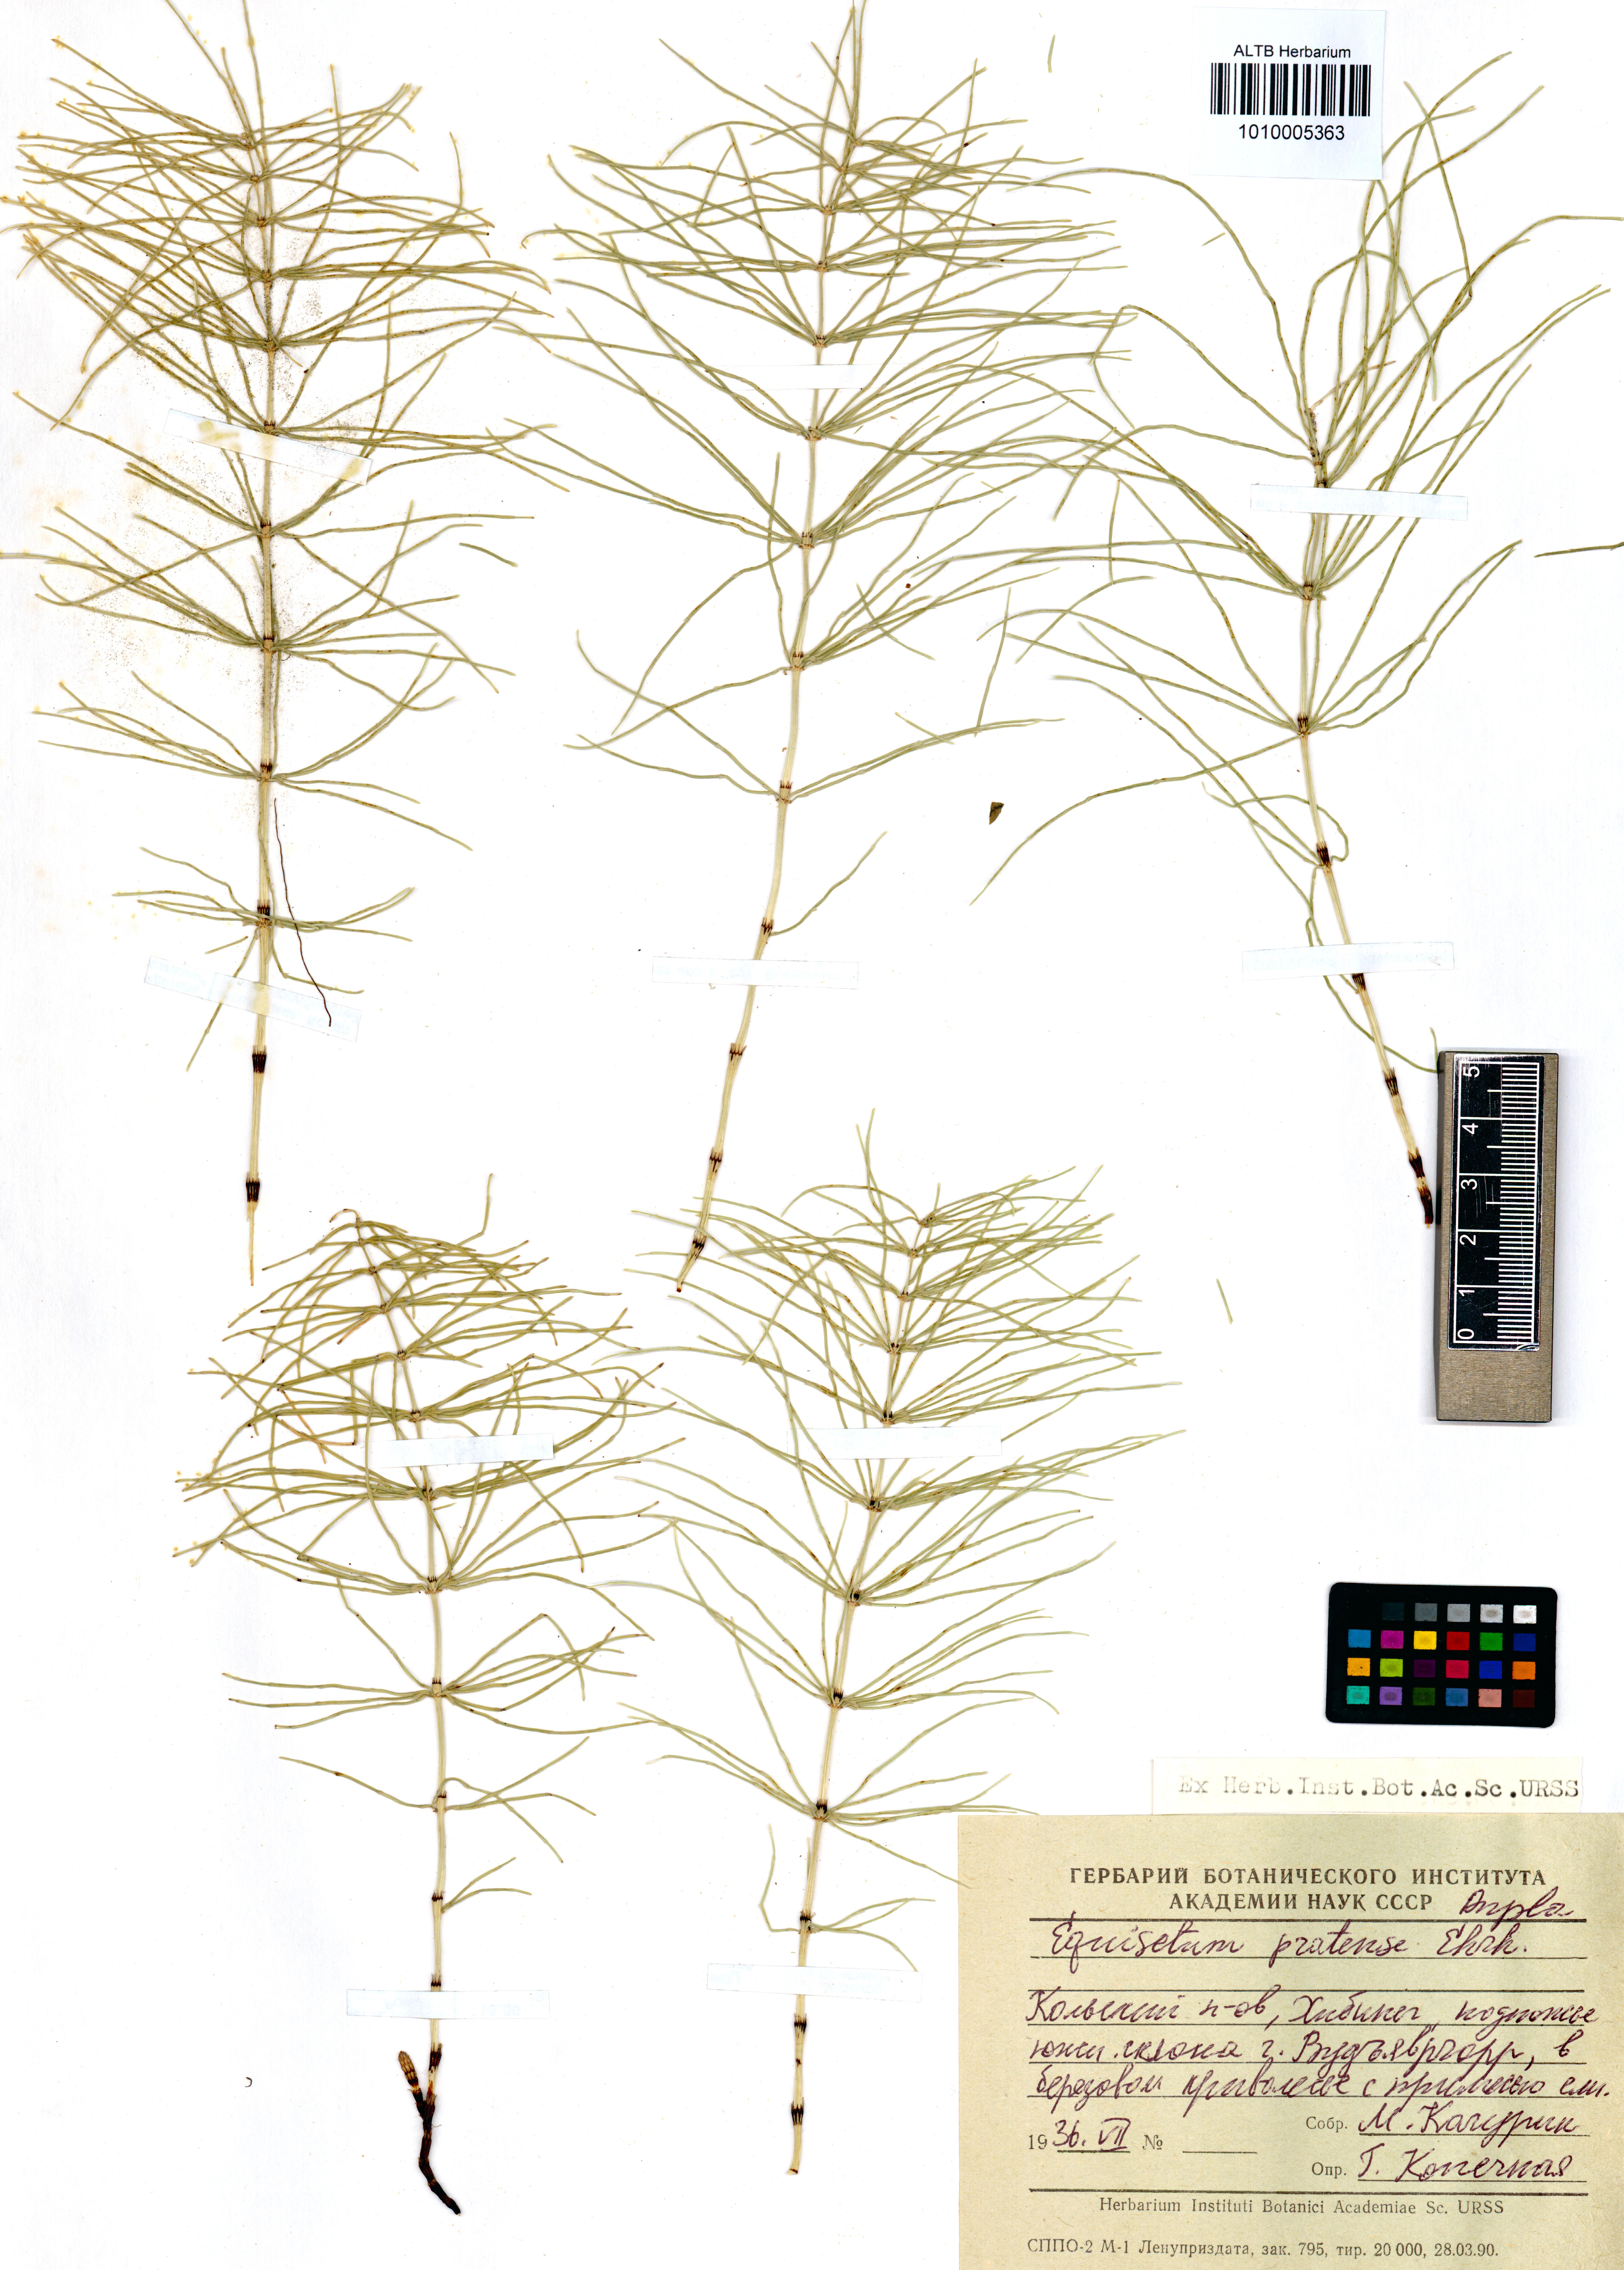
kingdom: Plantae
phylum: Tracheophyta
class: Polypodiopsida
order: Equisetales
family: Equisetaceae
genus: Equisetum
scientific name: Equisetum pratense
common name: Meadow horsetail
